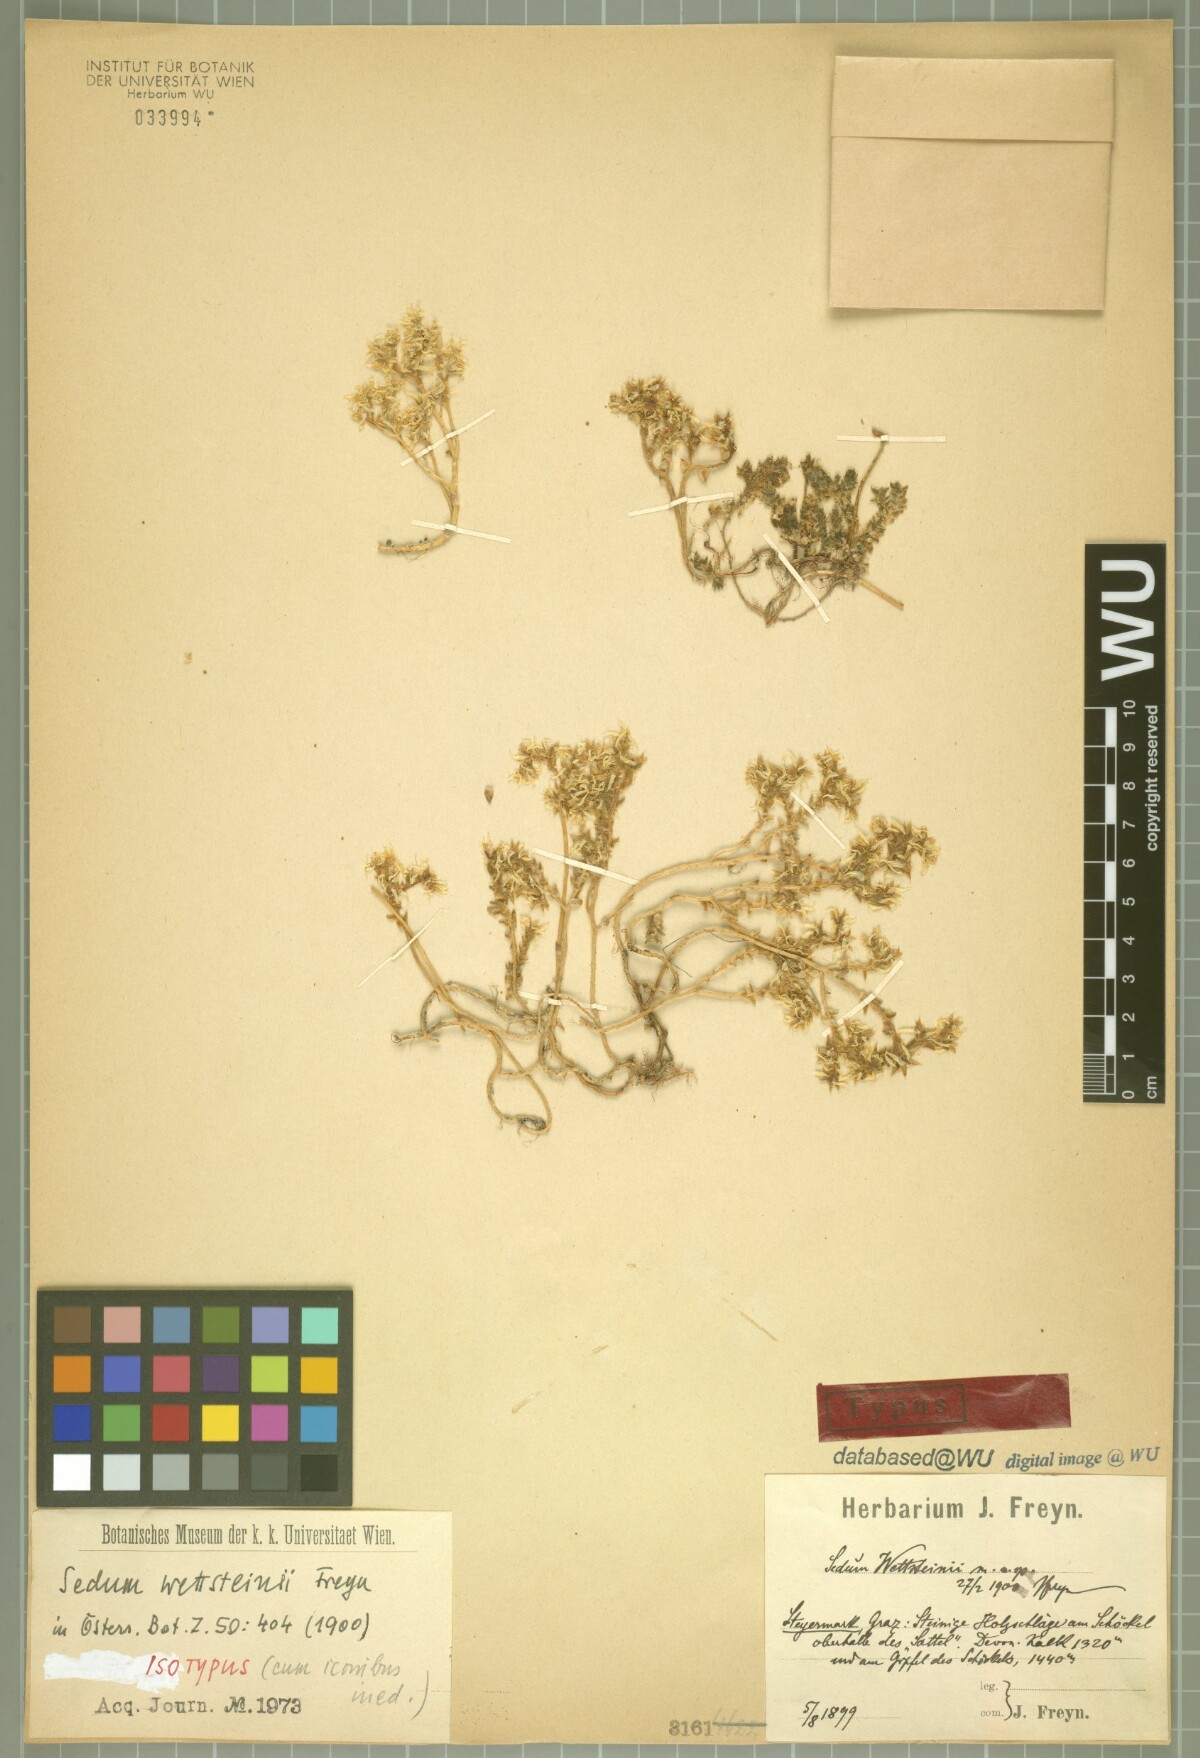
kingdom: Plantae
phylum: Tracheophyta
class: Magnoliopsida
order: Saxifragales
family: Crassulaceae
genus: Sedum
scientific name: Sedum acre
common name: Biting stonecrop
